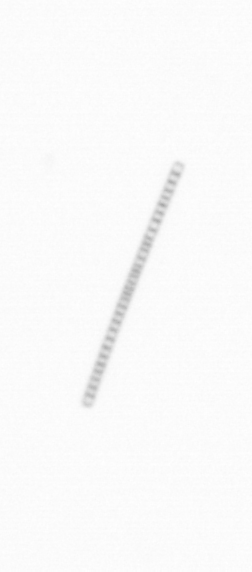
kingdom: Chromista
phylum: Ochrophyta
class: Bacillariophyceae
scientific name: Bacillariophyceae
